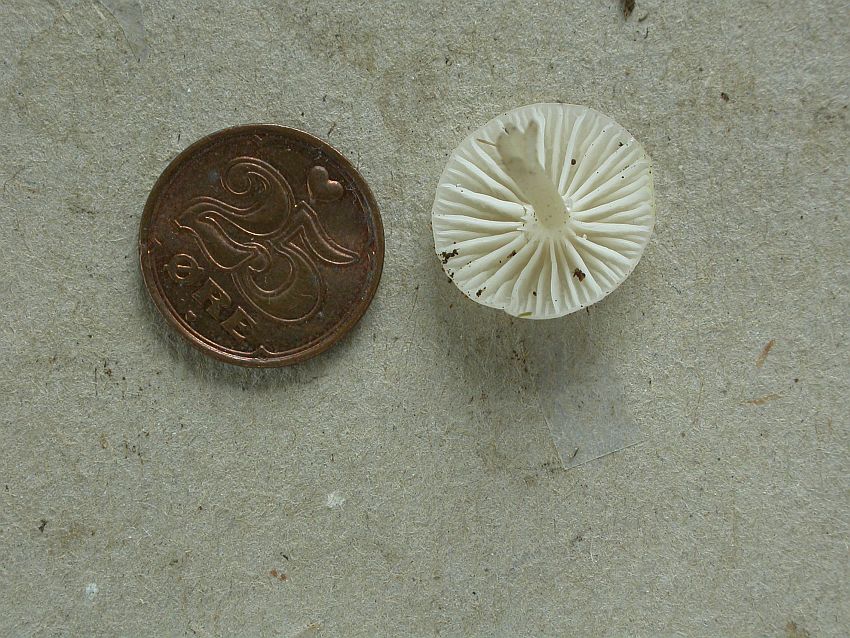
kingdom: Fungi
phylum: Basidiomycota
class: Agaricomycetes
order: Agaricales
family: Hygrophoraceae
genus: Cuphophyllus
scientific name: Cuphophyllus
